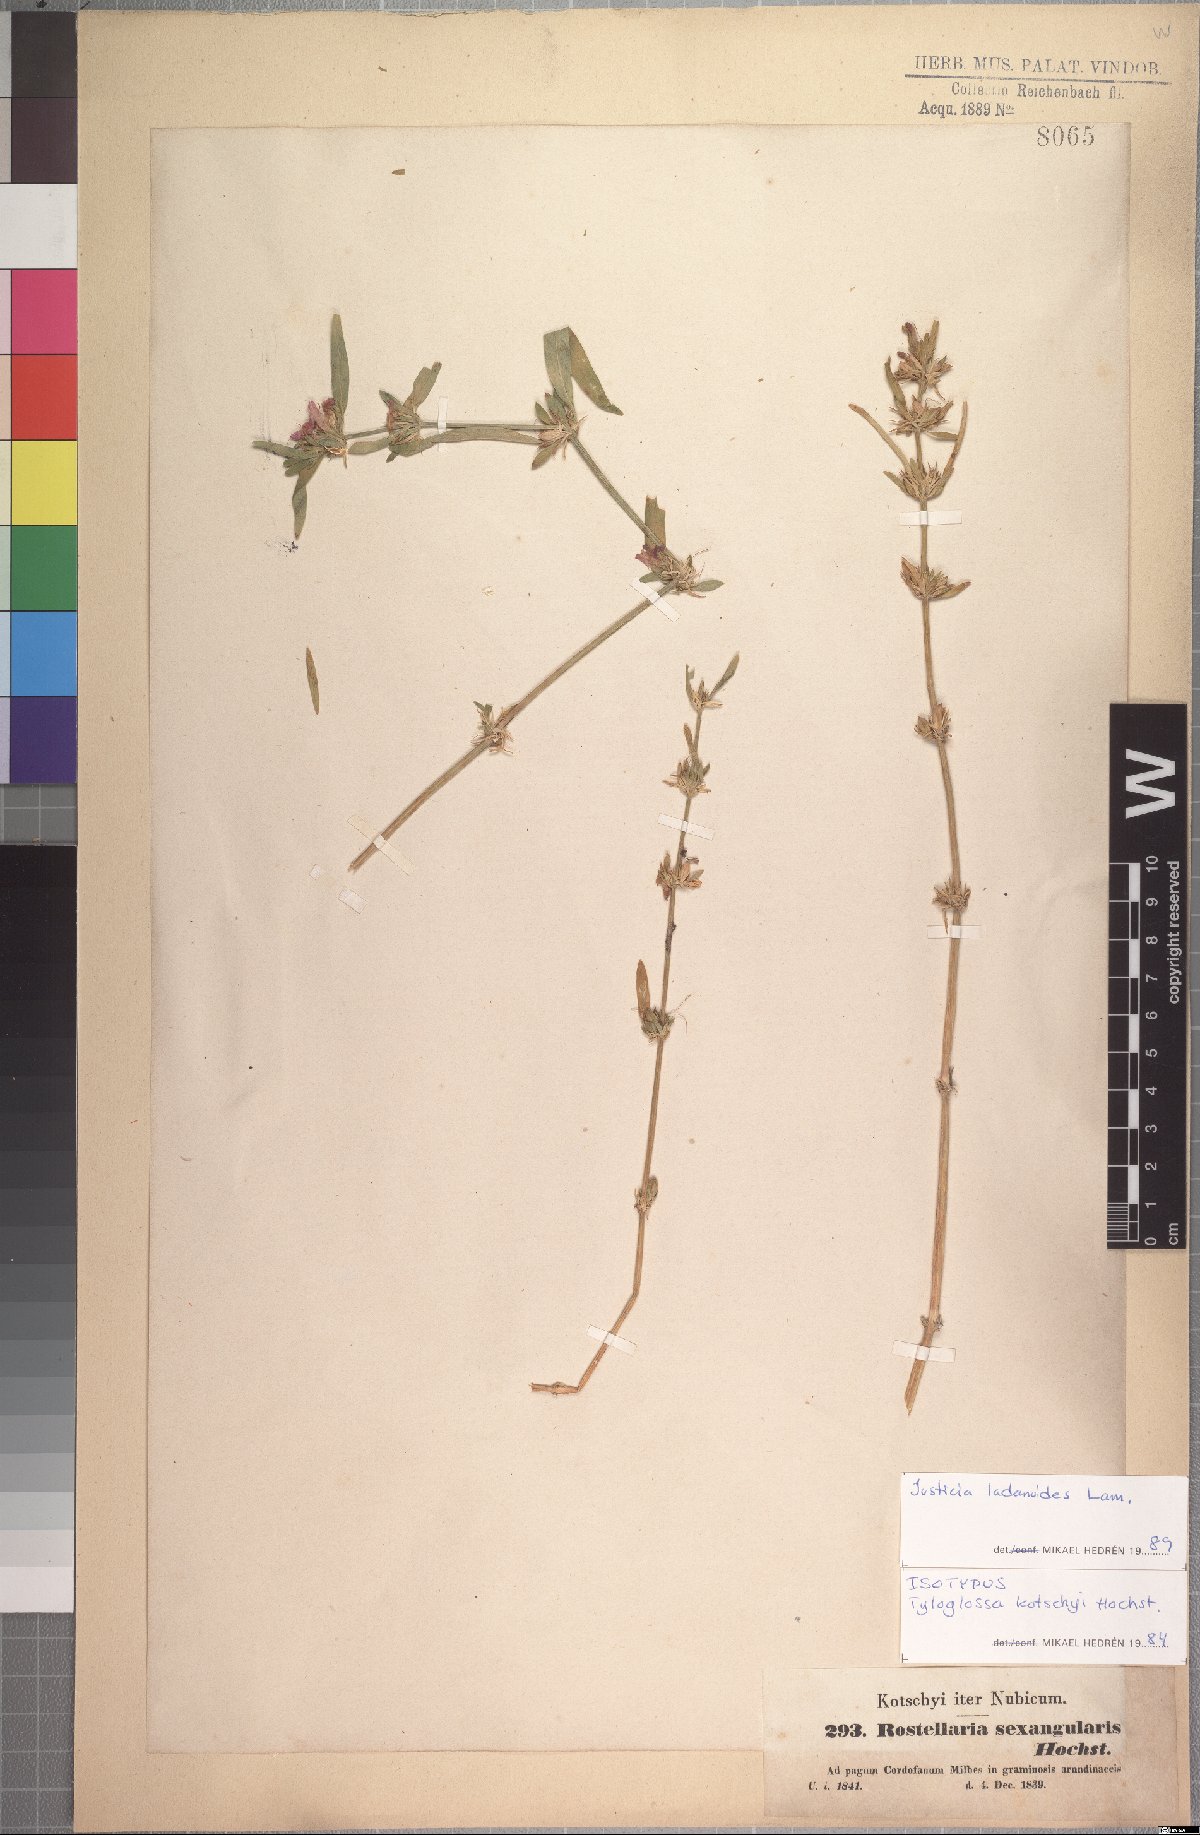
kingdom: Plantae
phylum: Tracheophyta
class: Magnoliopsida
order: Lamiales
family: Acanthaceae
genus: Justicia
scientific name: Justicia ladanoides
